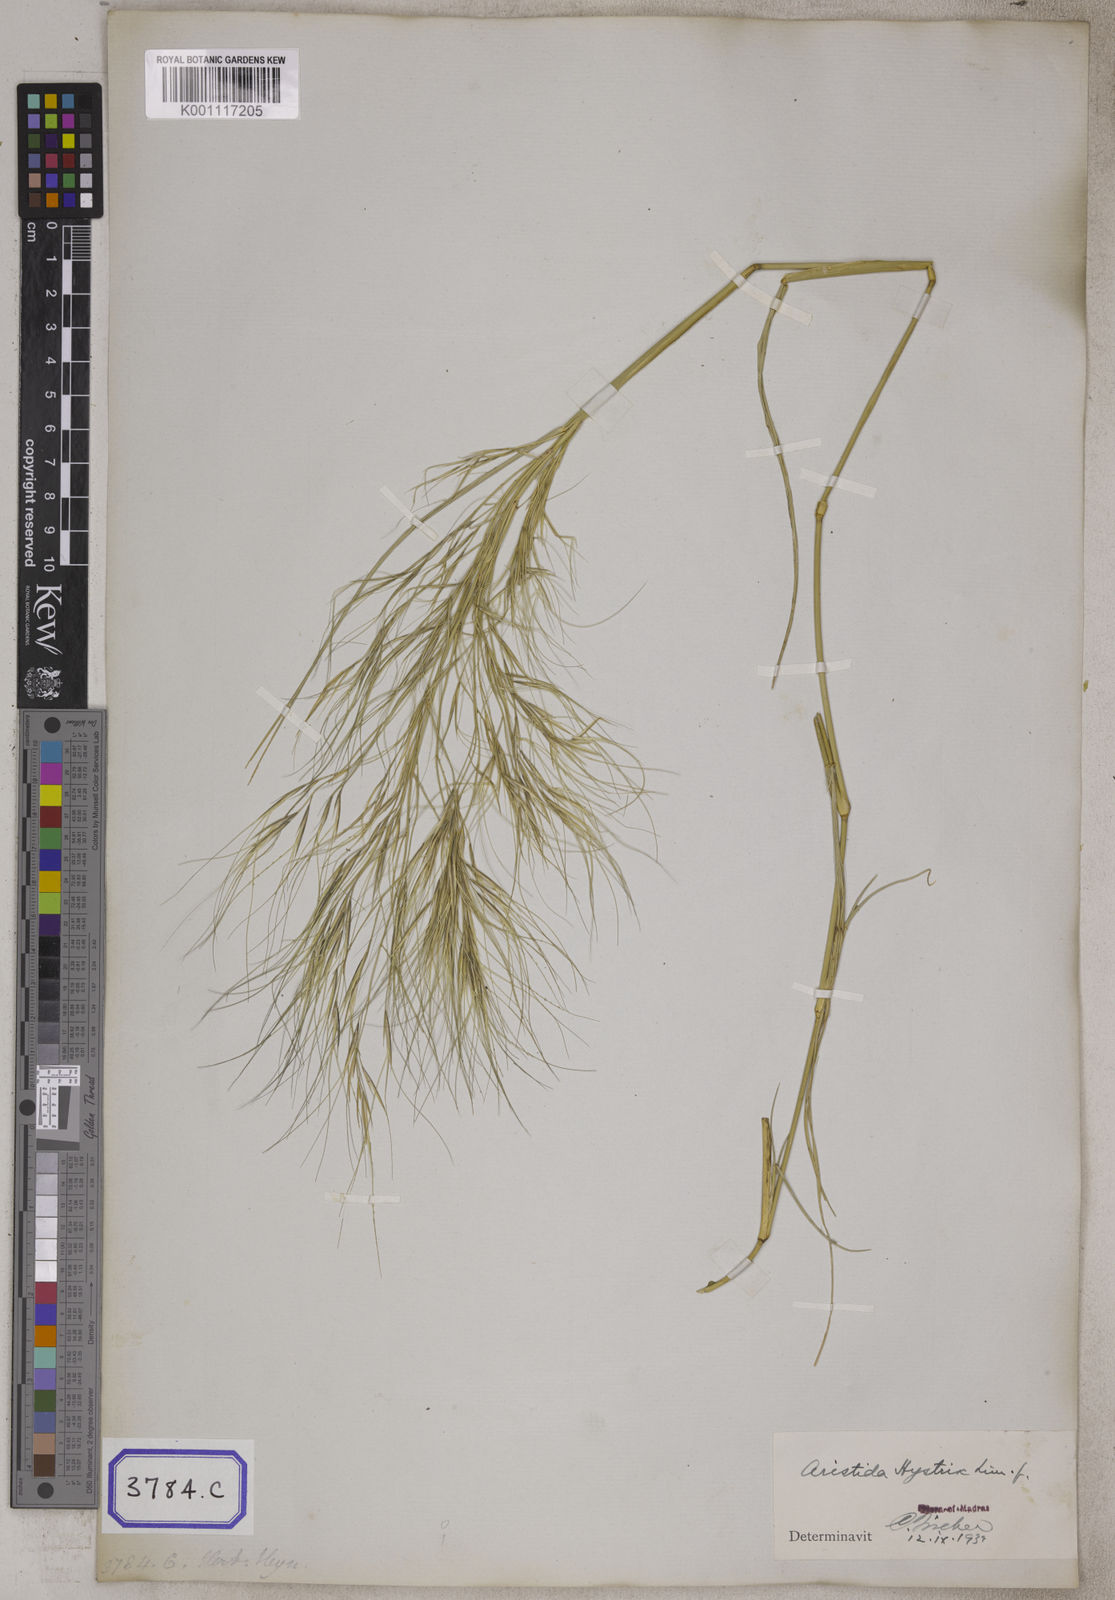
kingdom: Plantae
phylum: Tracheophyta
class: Liliopsida
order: Poales
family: Poaceae
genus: Aristida
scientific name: Aristida hystrix
